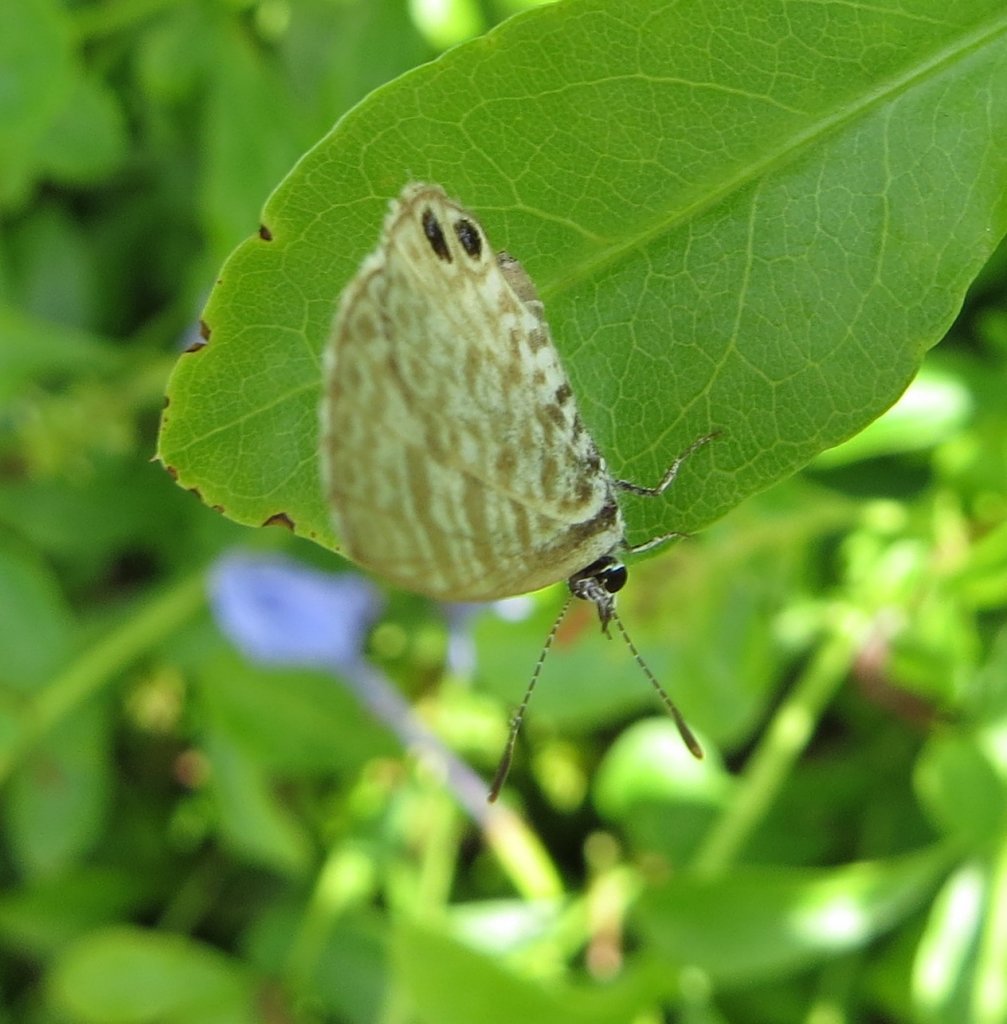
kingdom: Animalia
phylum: Arthropoda
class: Insecta
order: Lepidoptera
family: Lycaenidae
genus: Leptotes
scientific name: Leptotes cassius
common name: Cassius Blue
